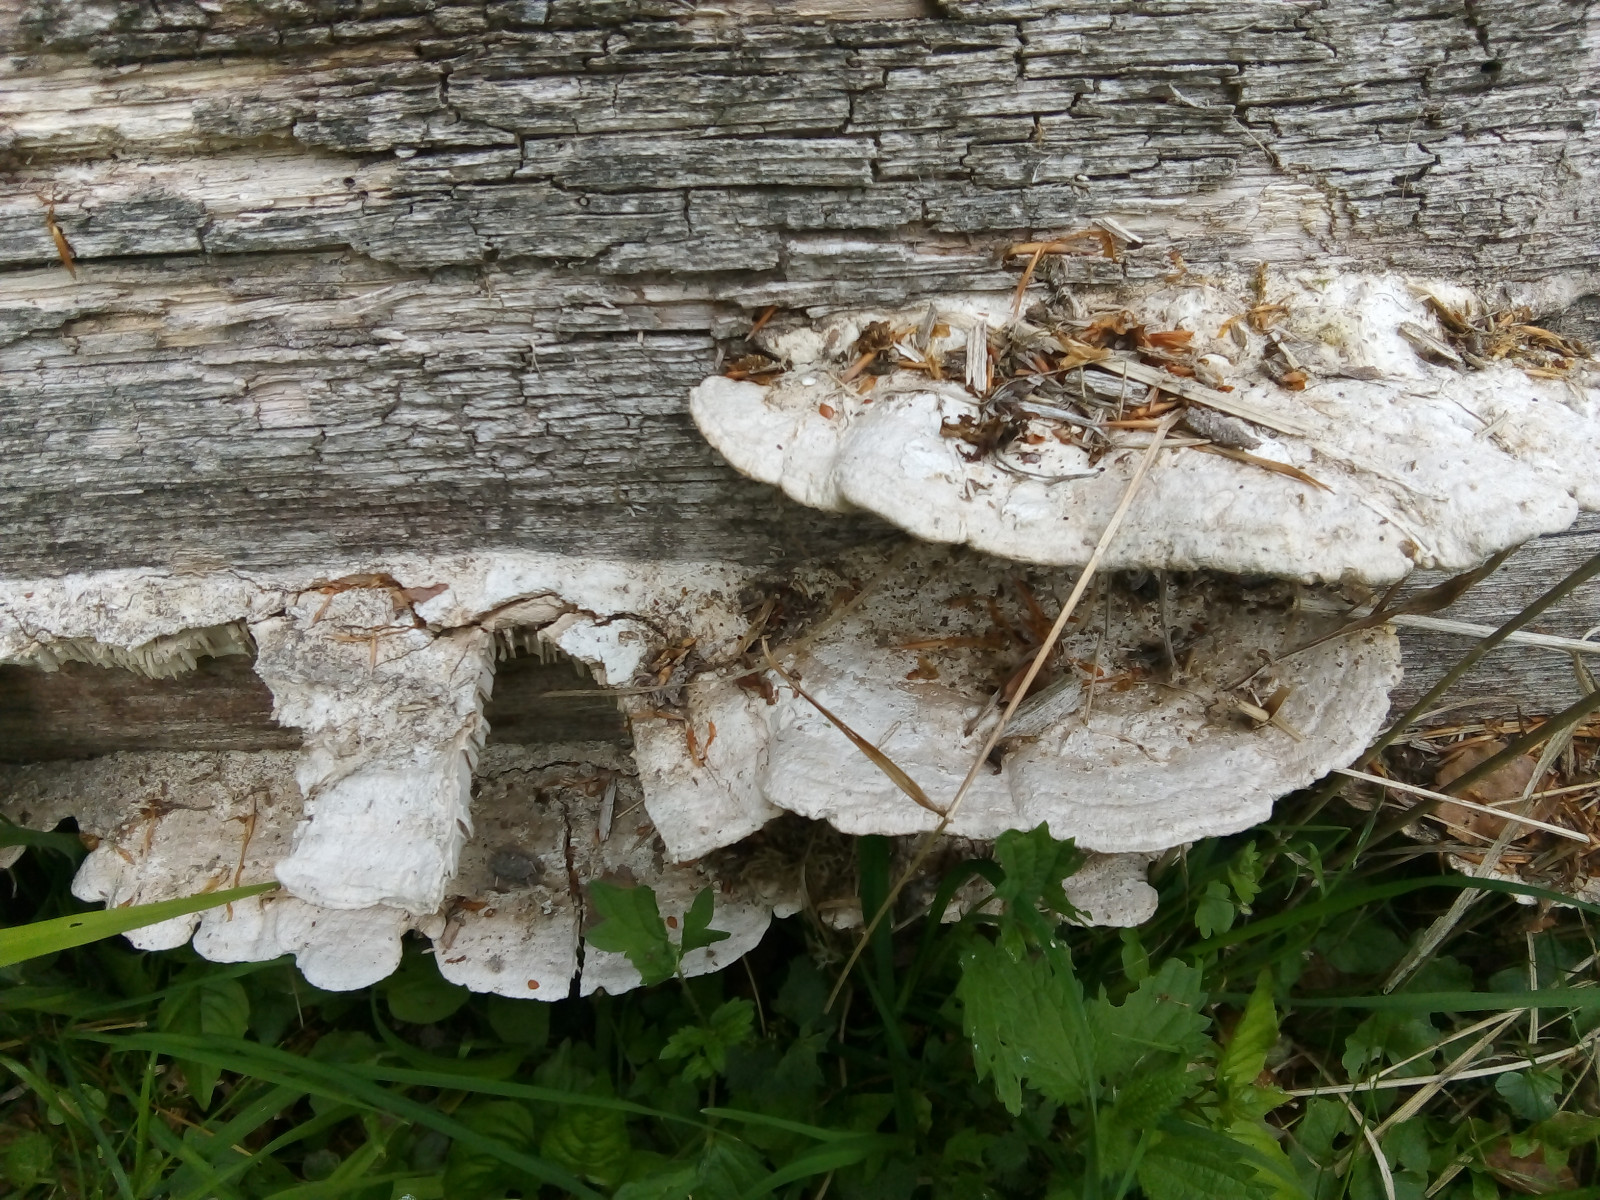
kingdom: Fungi
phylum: Basidiomycota
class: Agaricomycetes
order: Polyporales
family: Fomitopsidaceae
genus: Daedalea
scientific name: Daedalea quercina
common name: ege-labyrintsvamp
